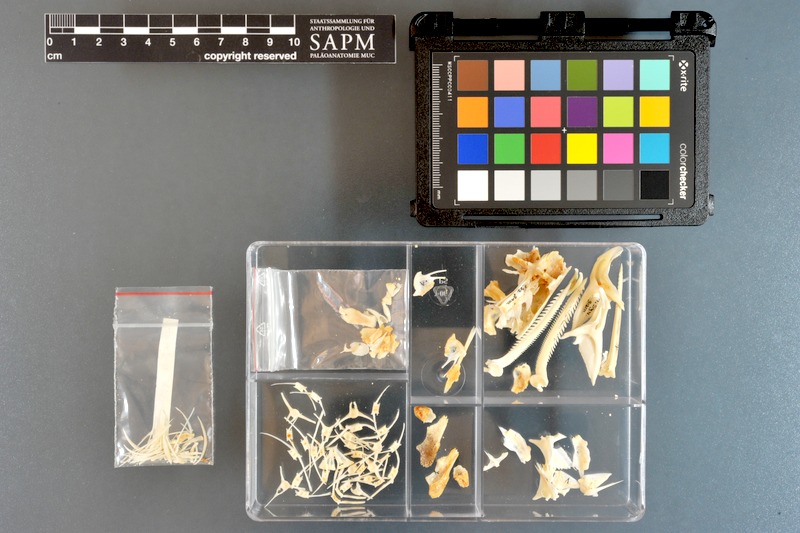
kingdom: Animalia
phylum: Chordata
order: Siluriformes
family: Mochokidae
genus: Synodontis
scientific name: Synodontis schall
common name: Wahrindi
